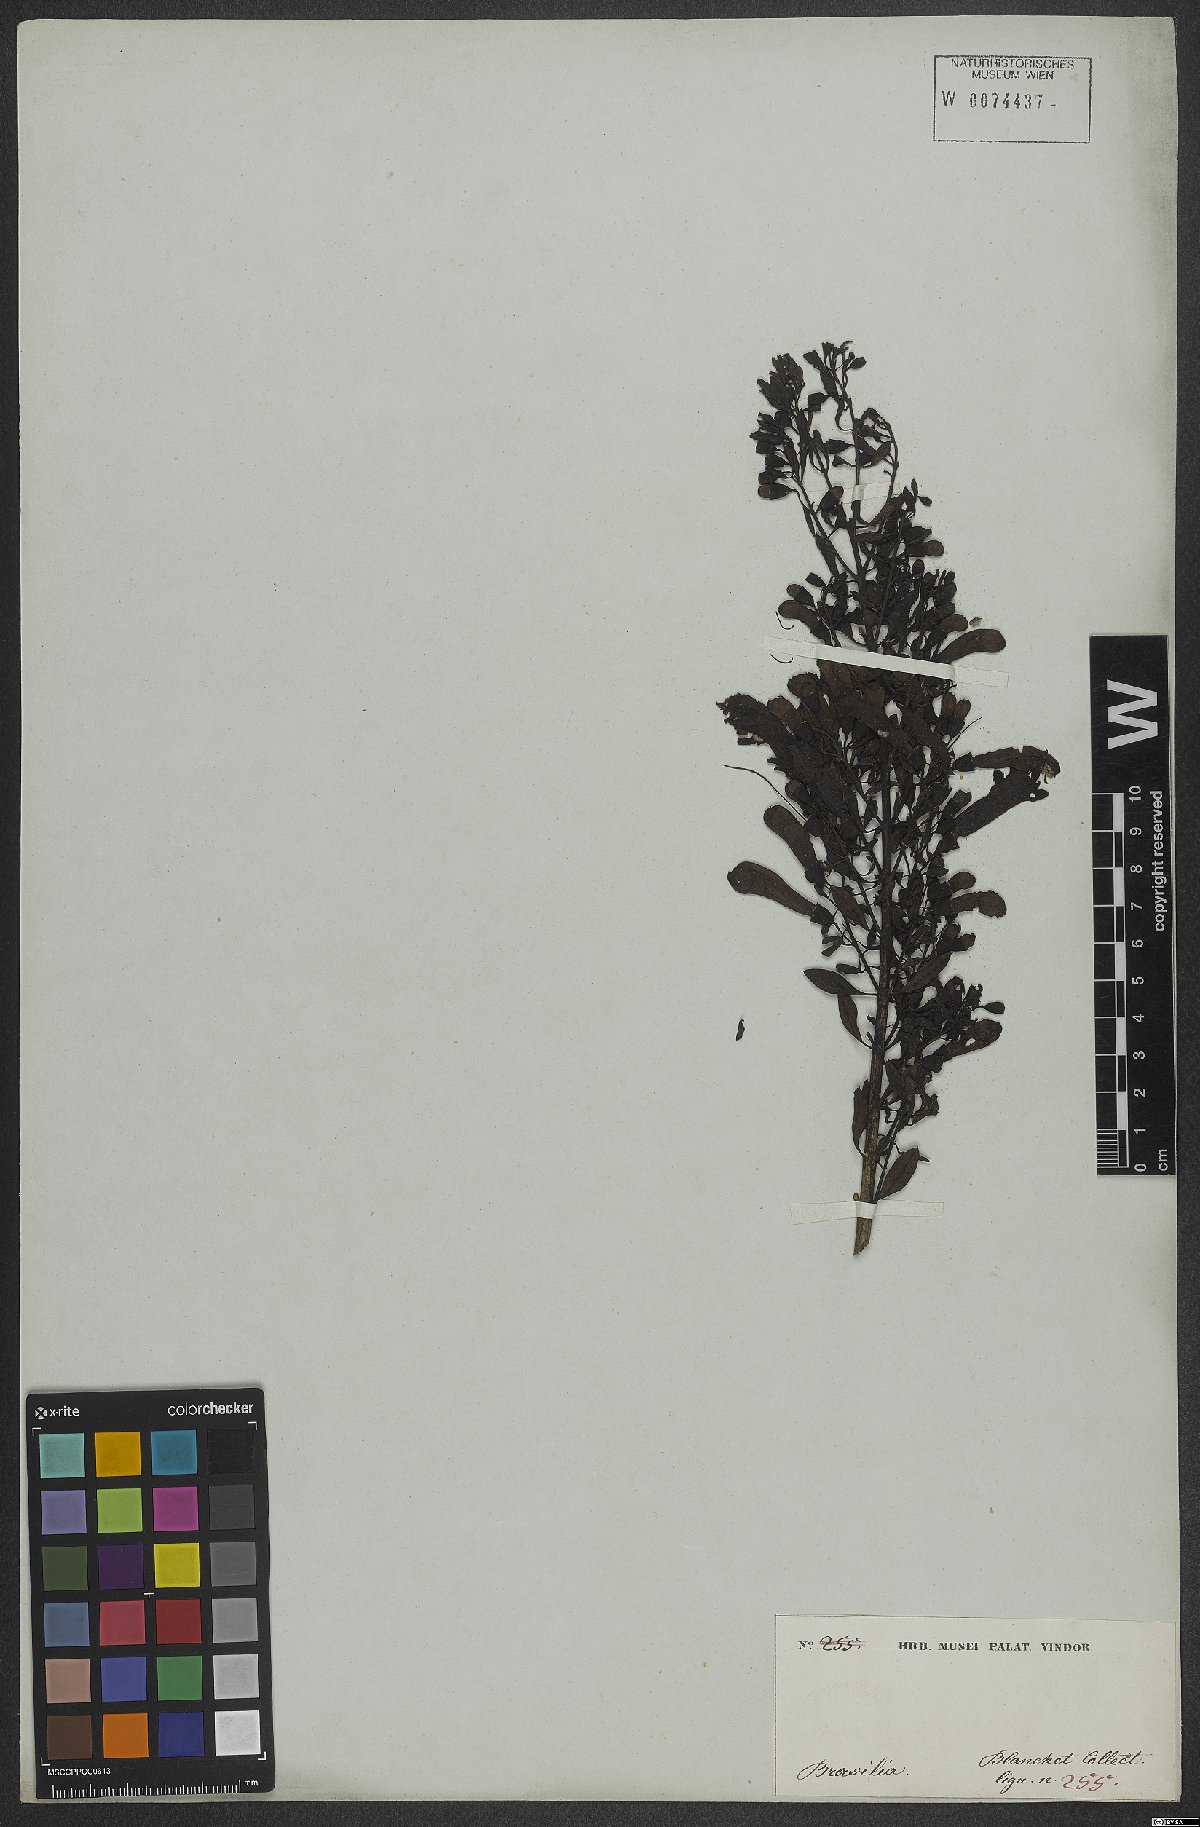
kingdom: Plantae
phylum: Tracheophyta
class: Magnoliopsida
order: Lamiales
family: Scrophulariaceae
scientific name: Scrophulariaceae
